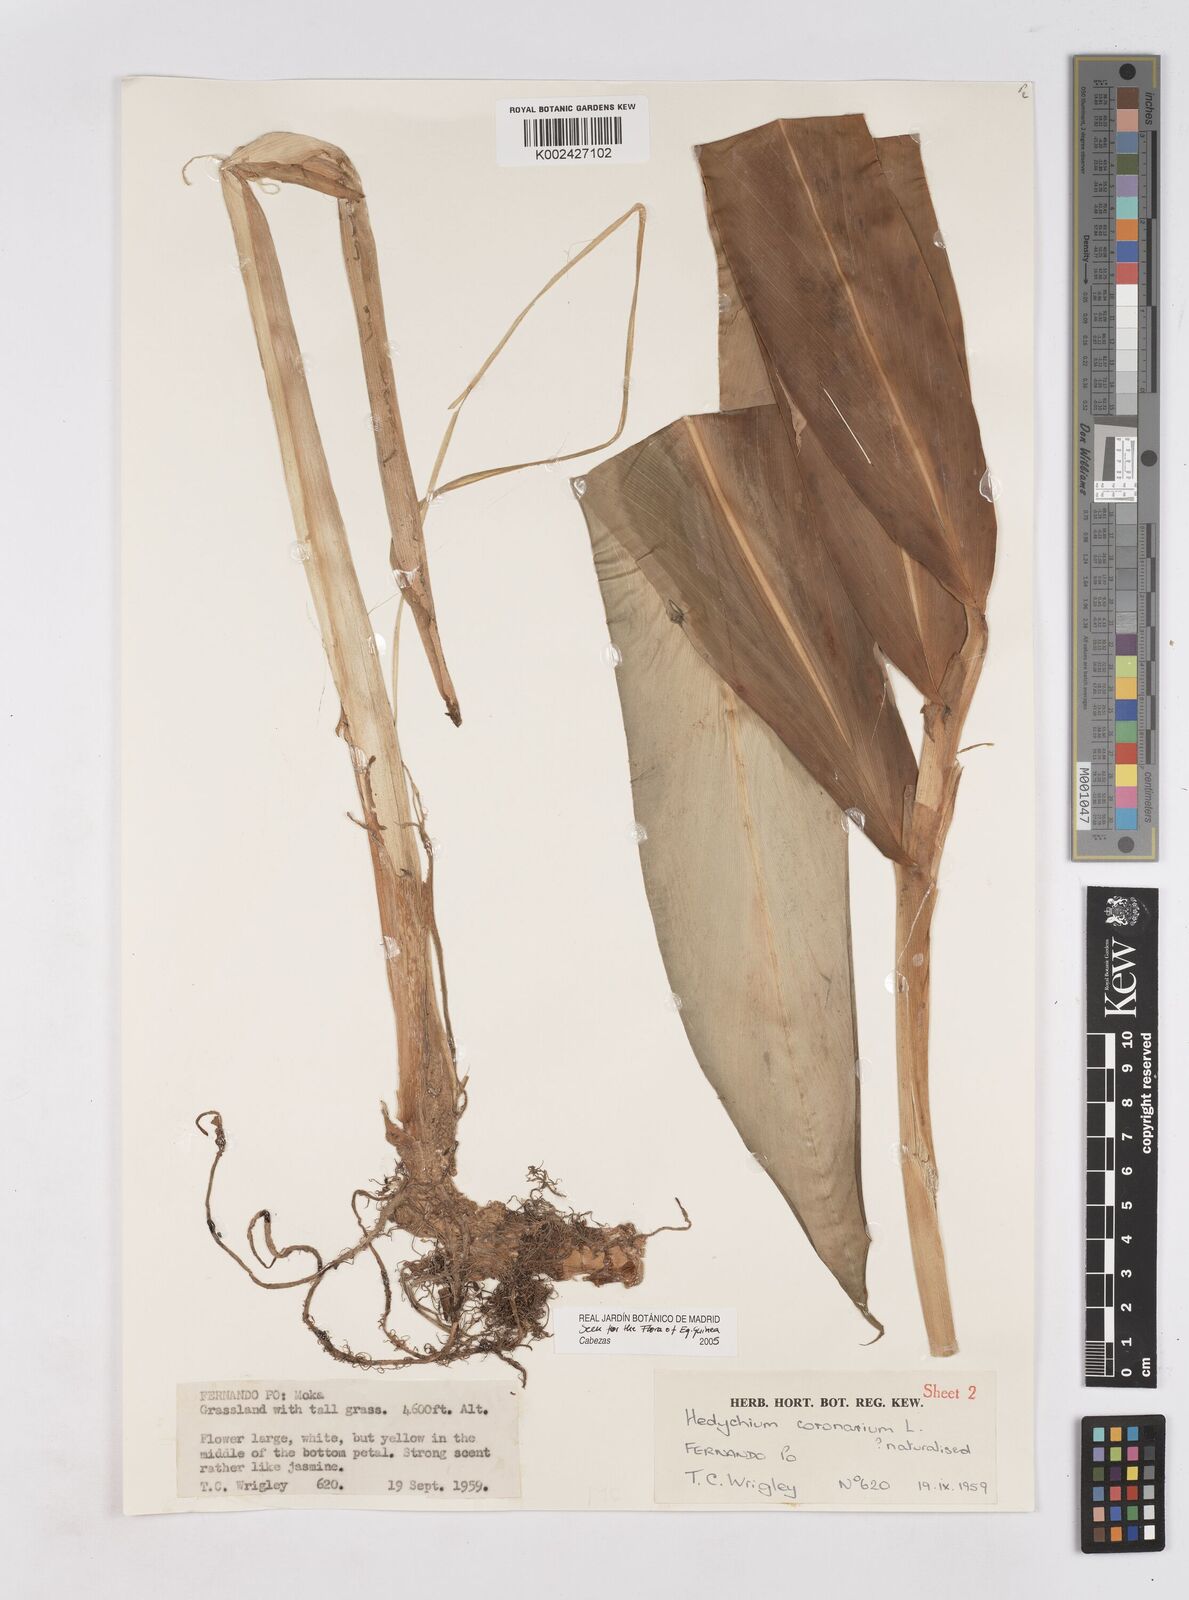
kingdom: Plantae
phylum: Tracheophyta
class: Liliopsida
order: Zingiberales
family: Zingiberaceae
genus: Hedychium
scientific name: Hedychium coronarium
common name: White garland-lily
